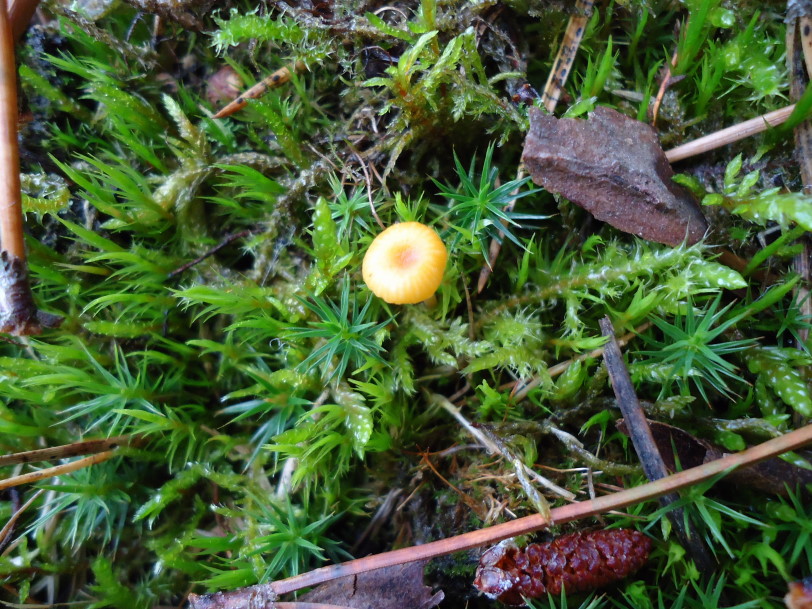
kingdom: Fungi
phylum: Basidiomycota
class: Agaricomycetes
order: Hymenochaetales
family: Rickenellaceae
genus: Rickenella
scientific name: Rickenella fibula
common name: orange mosnavlehat
